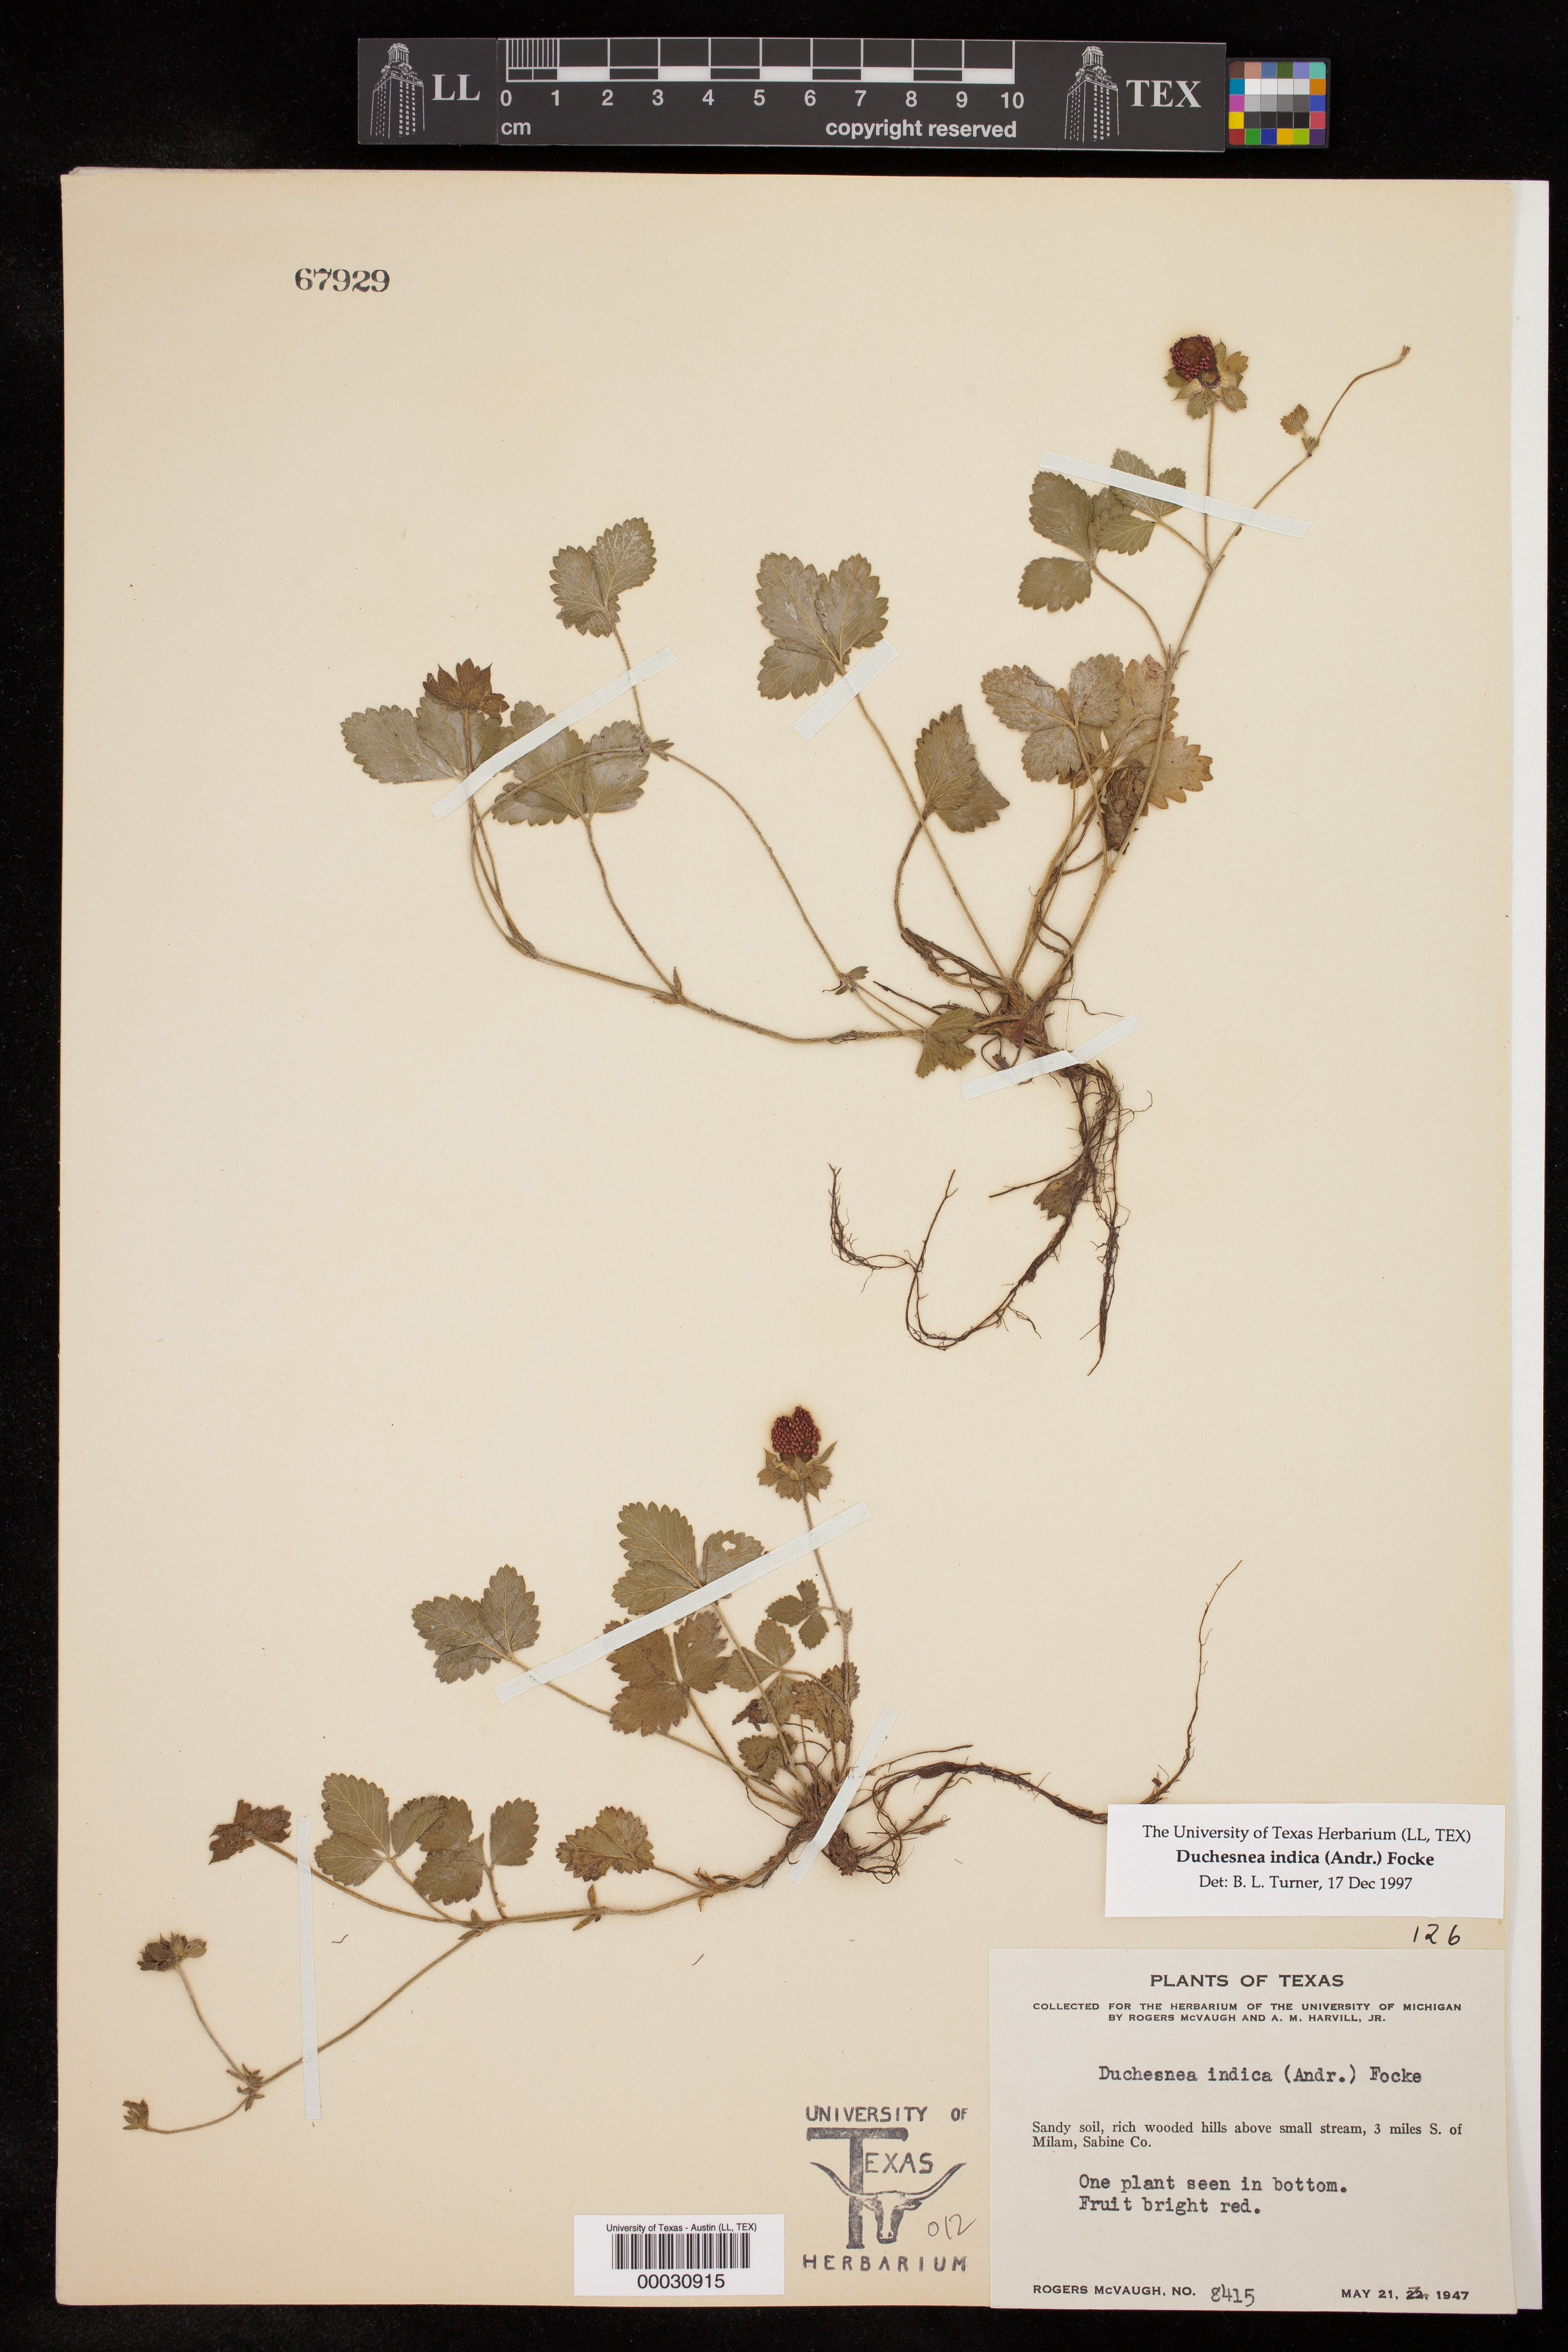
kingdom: Plantae
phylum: Tracheophyta
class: Magnoliopsida
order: Rosales
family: Rosaceae
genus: Potentilla
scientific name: Potentilla indica
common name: Yellow-flowered strawberry
